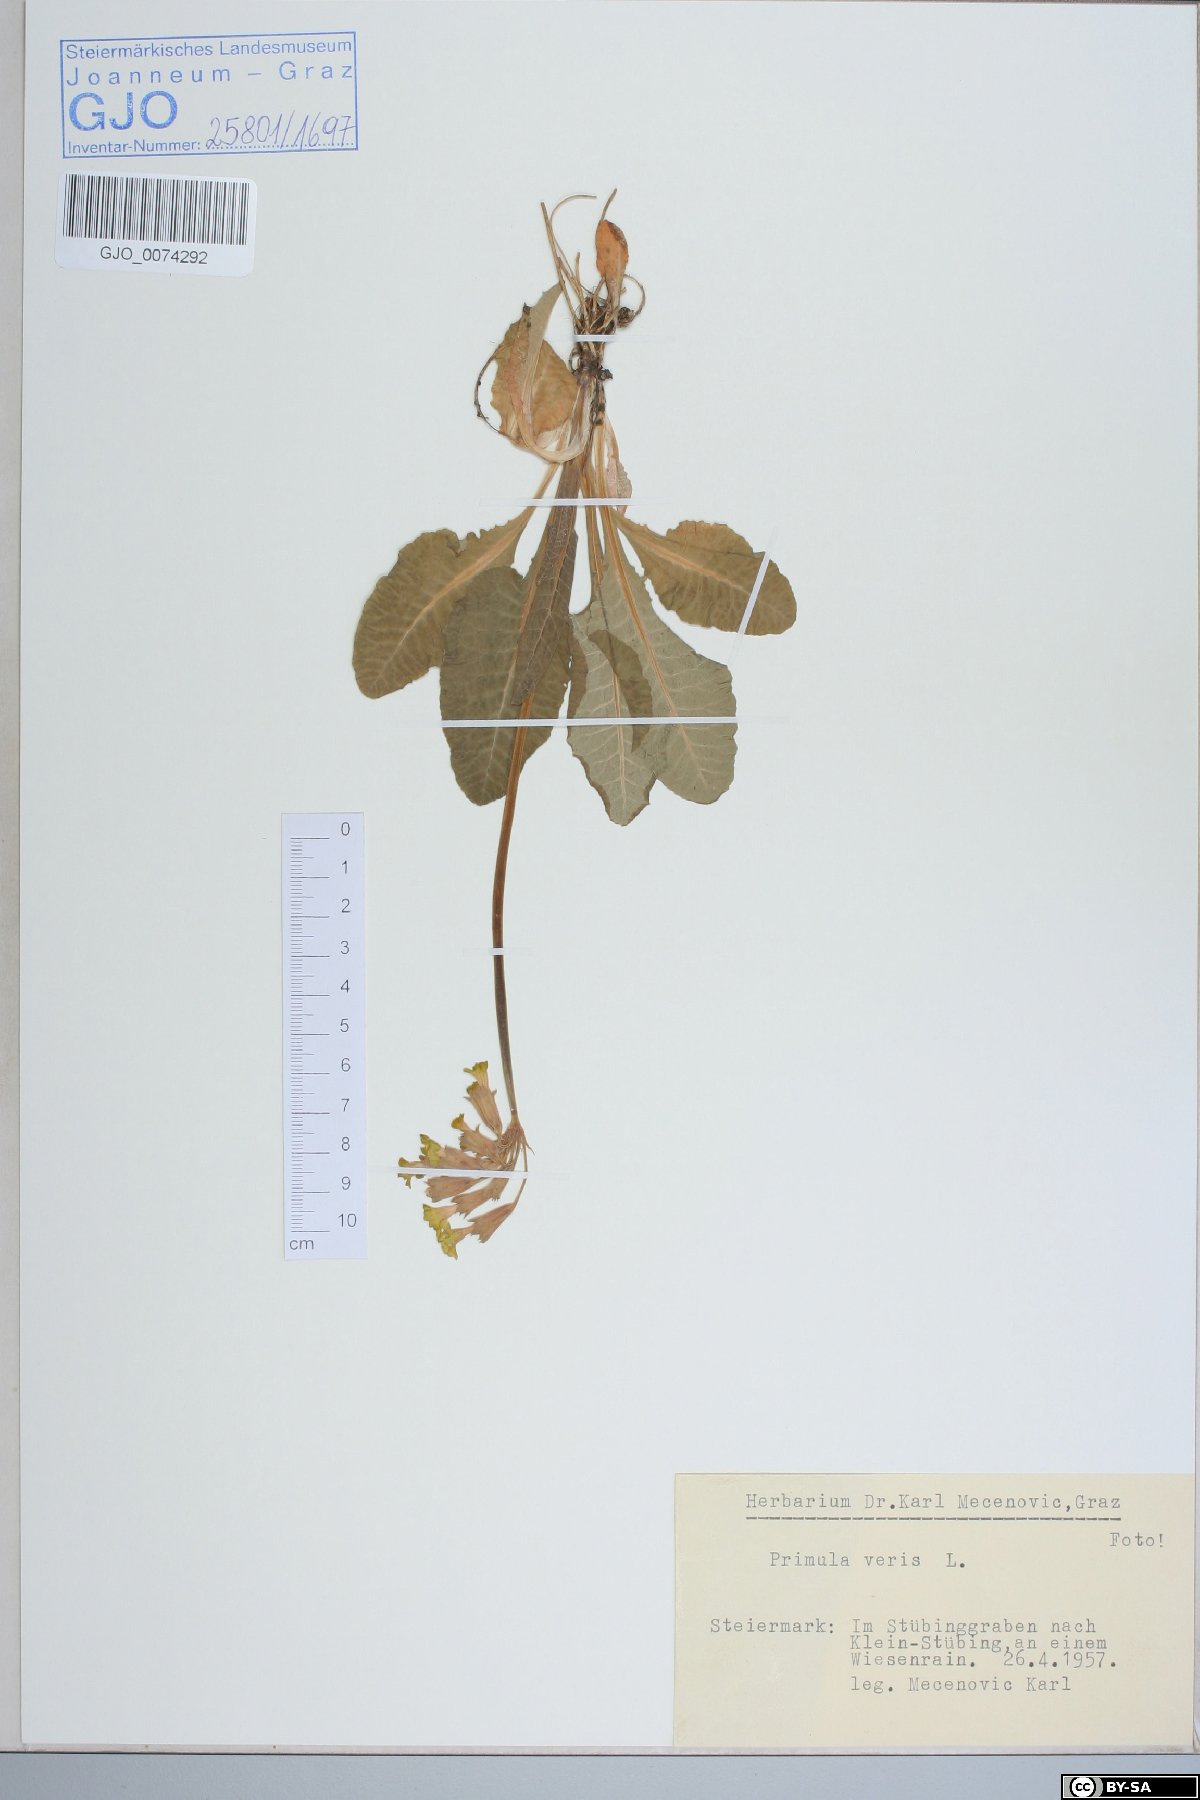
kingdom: Plantae
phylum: Tracheophyta
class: Magnoliopsida
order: Ericales
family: Primulaceae
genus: Primula
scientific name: Primula veris
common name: Cowslip
